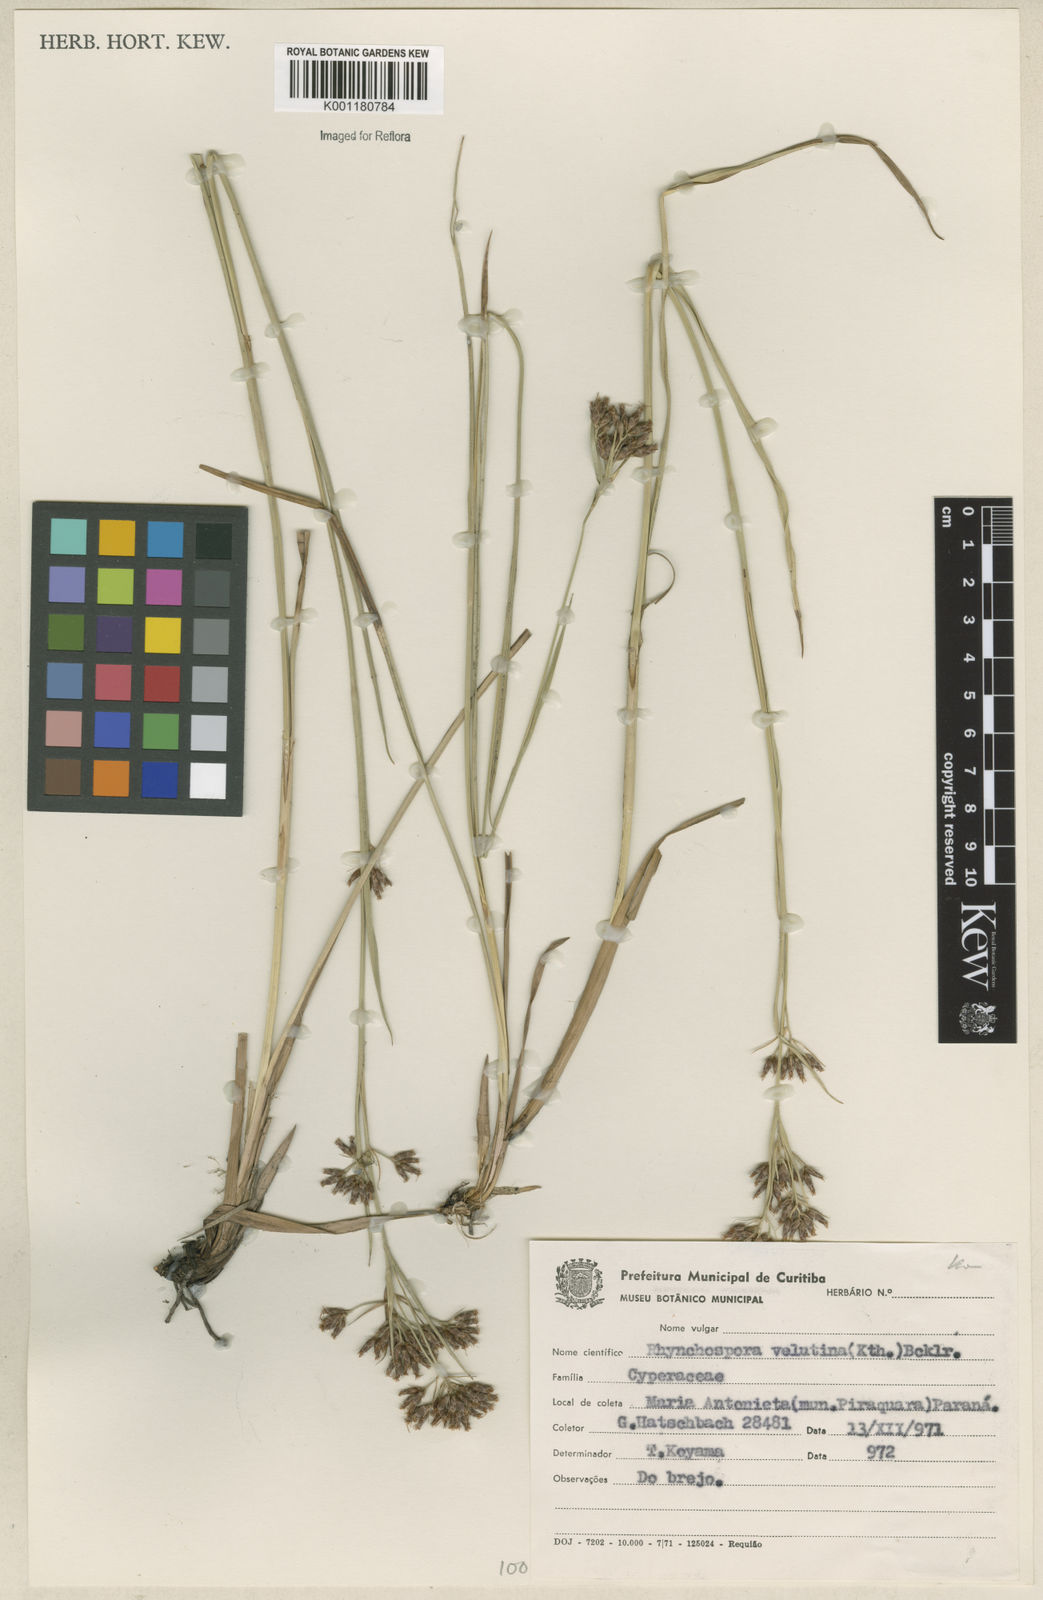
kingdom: Plantae
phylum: Tracheophyta
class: Liliopsida
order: Poales
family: Cyperaceae
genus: Rhynchospora
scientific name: Rhynchospora velutina
